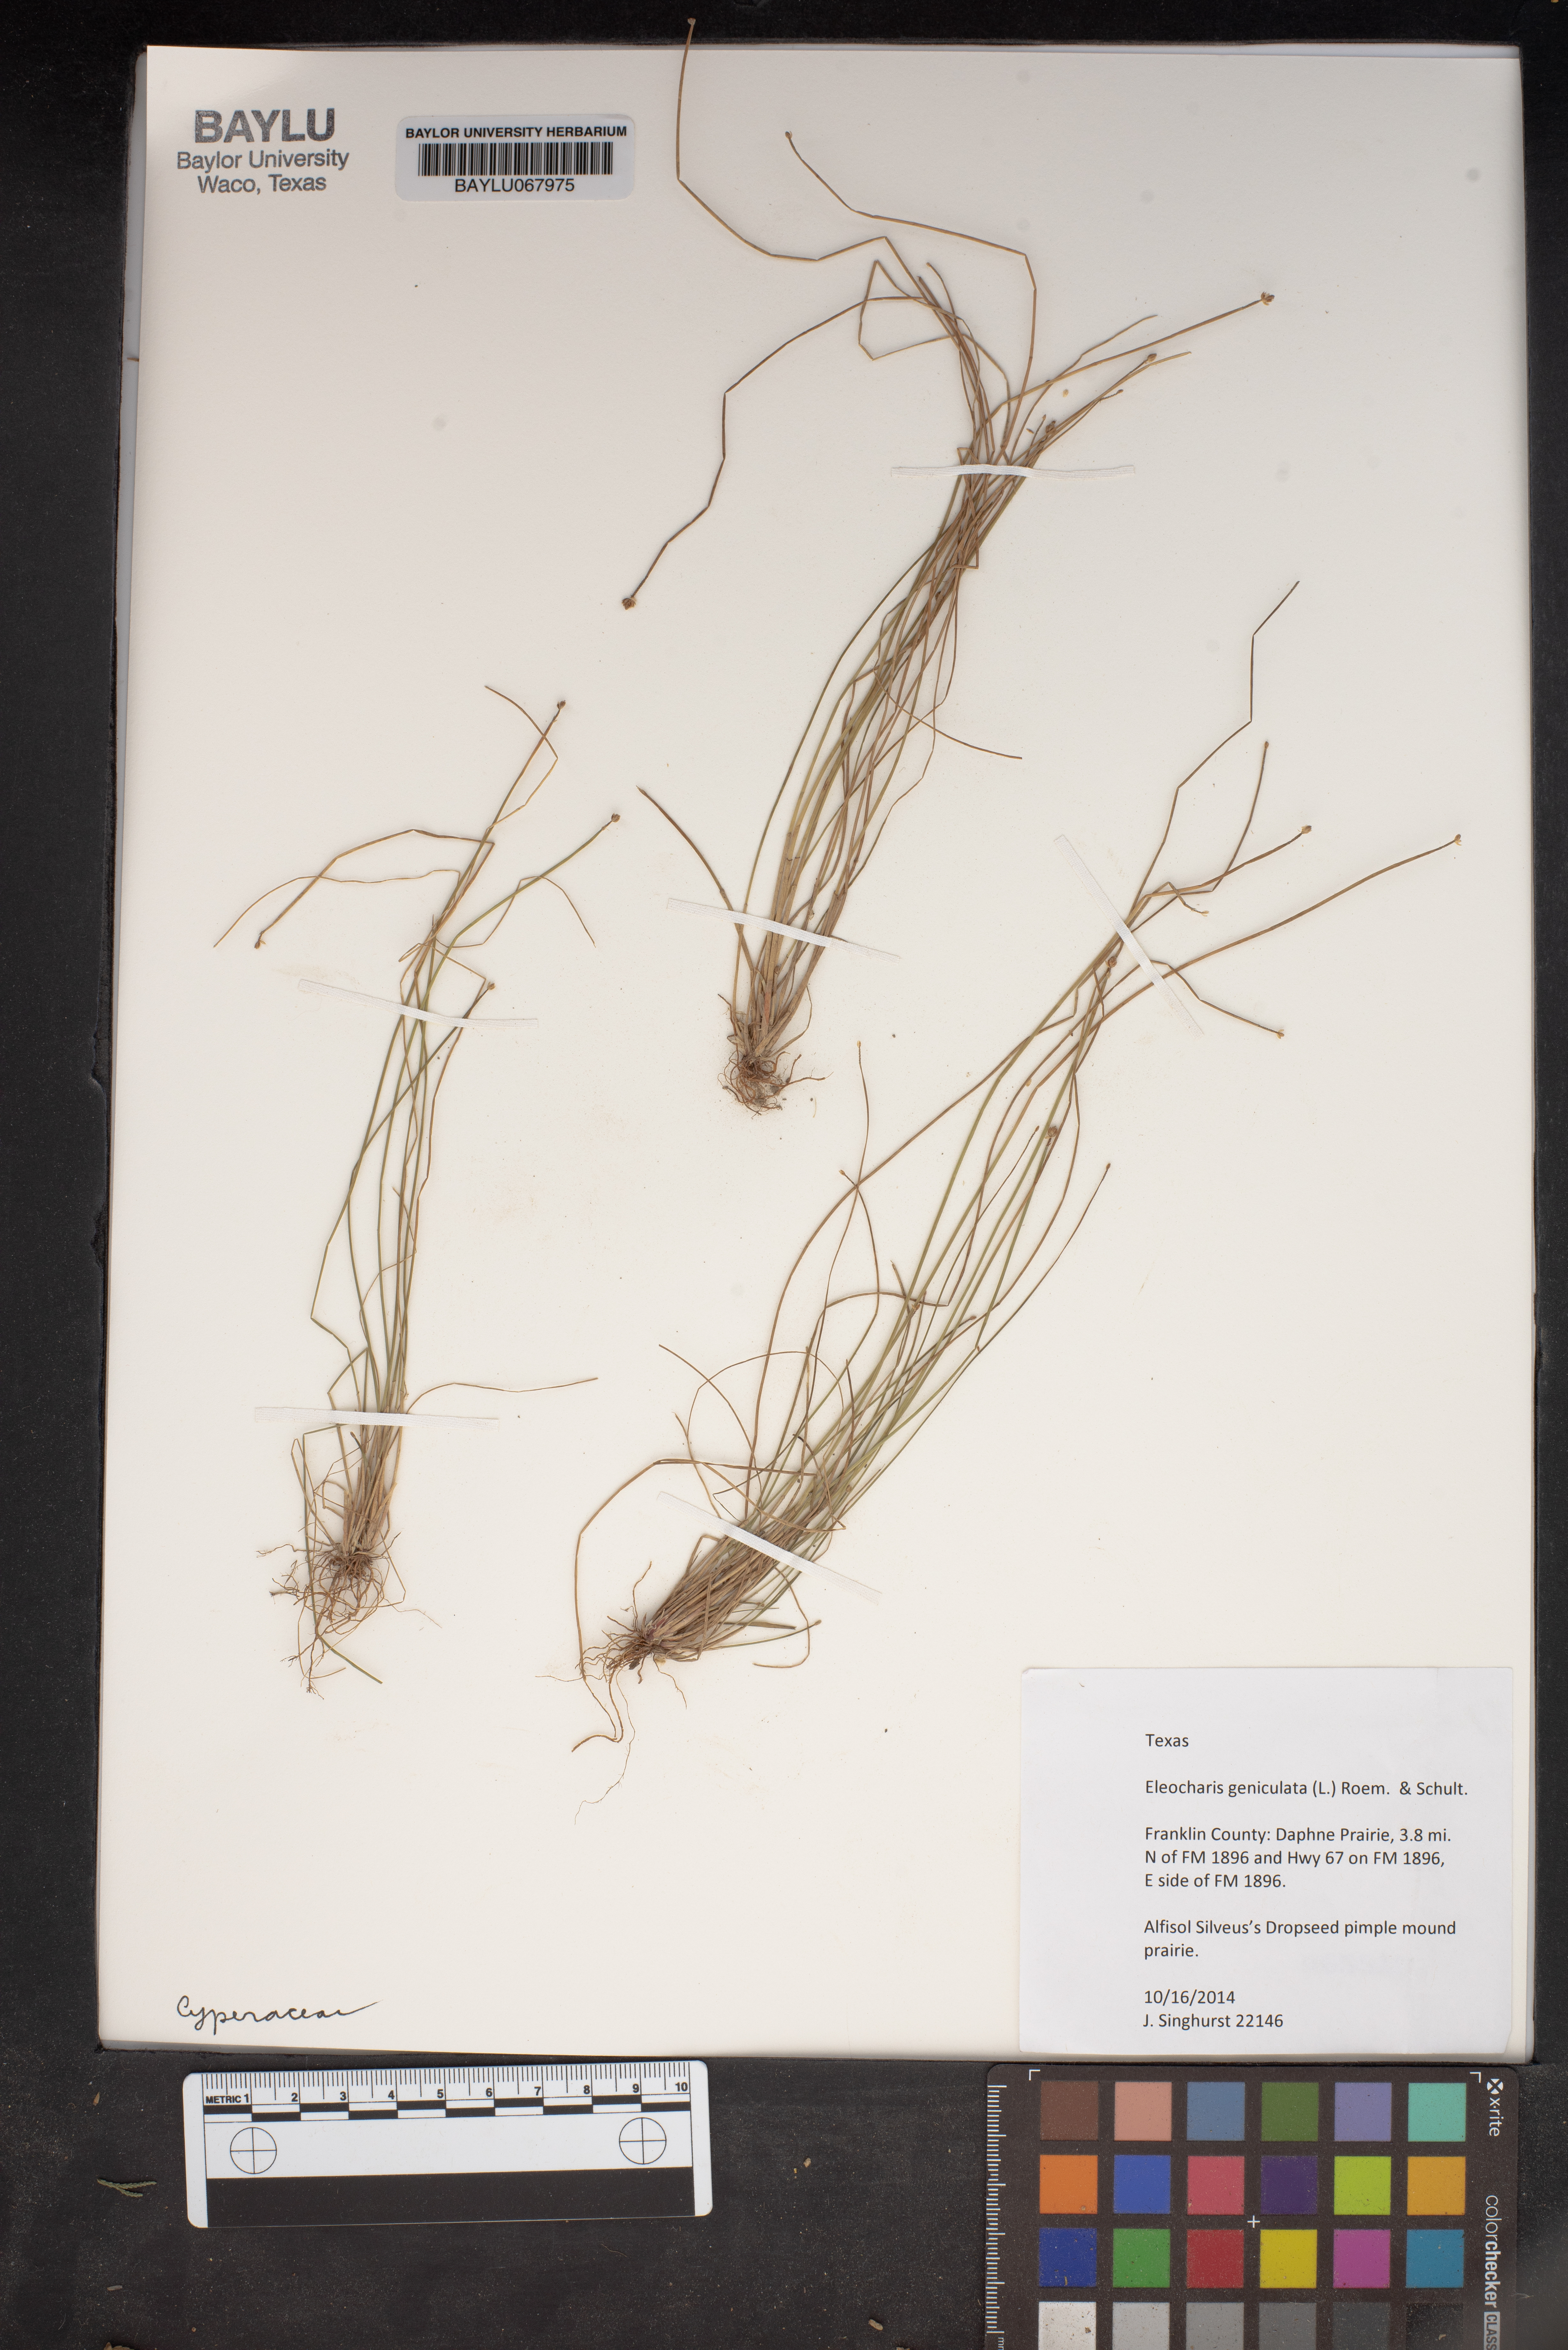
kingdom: Plantae
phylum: Tracheophyta
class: Liliopsida
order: Poales
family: Cyperaceae
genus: Eleocharis
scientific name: Eleocharis geniculata
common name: Canada spikesedge
